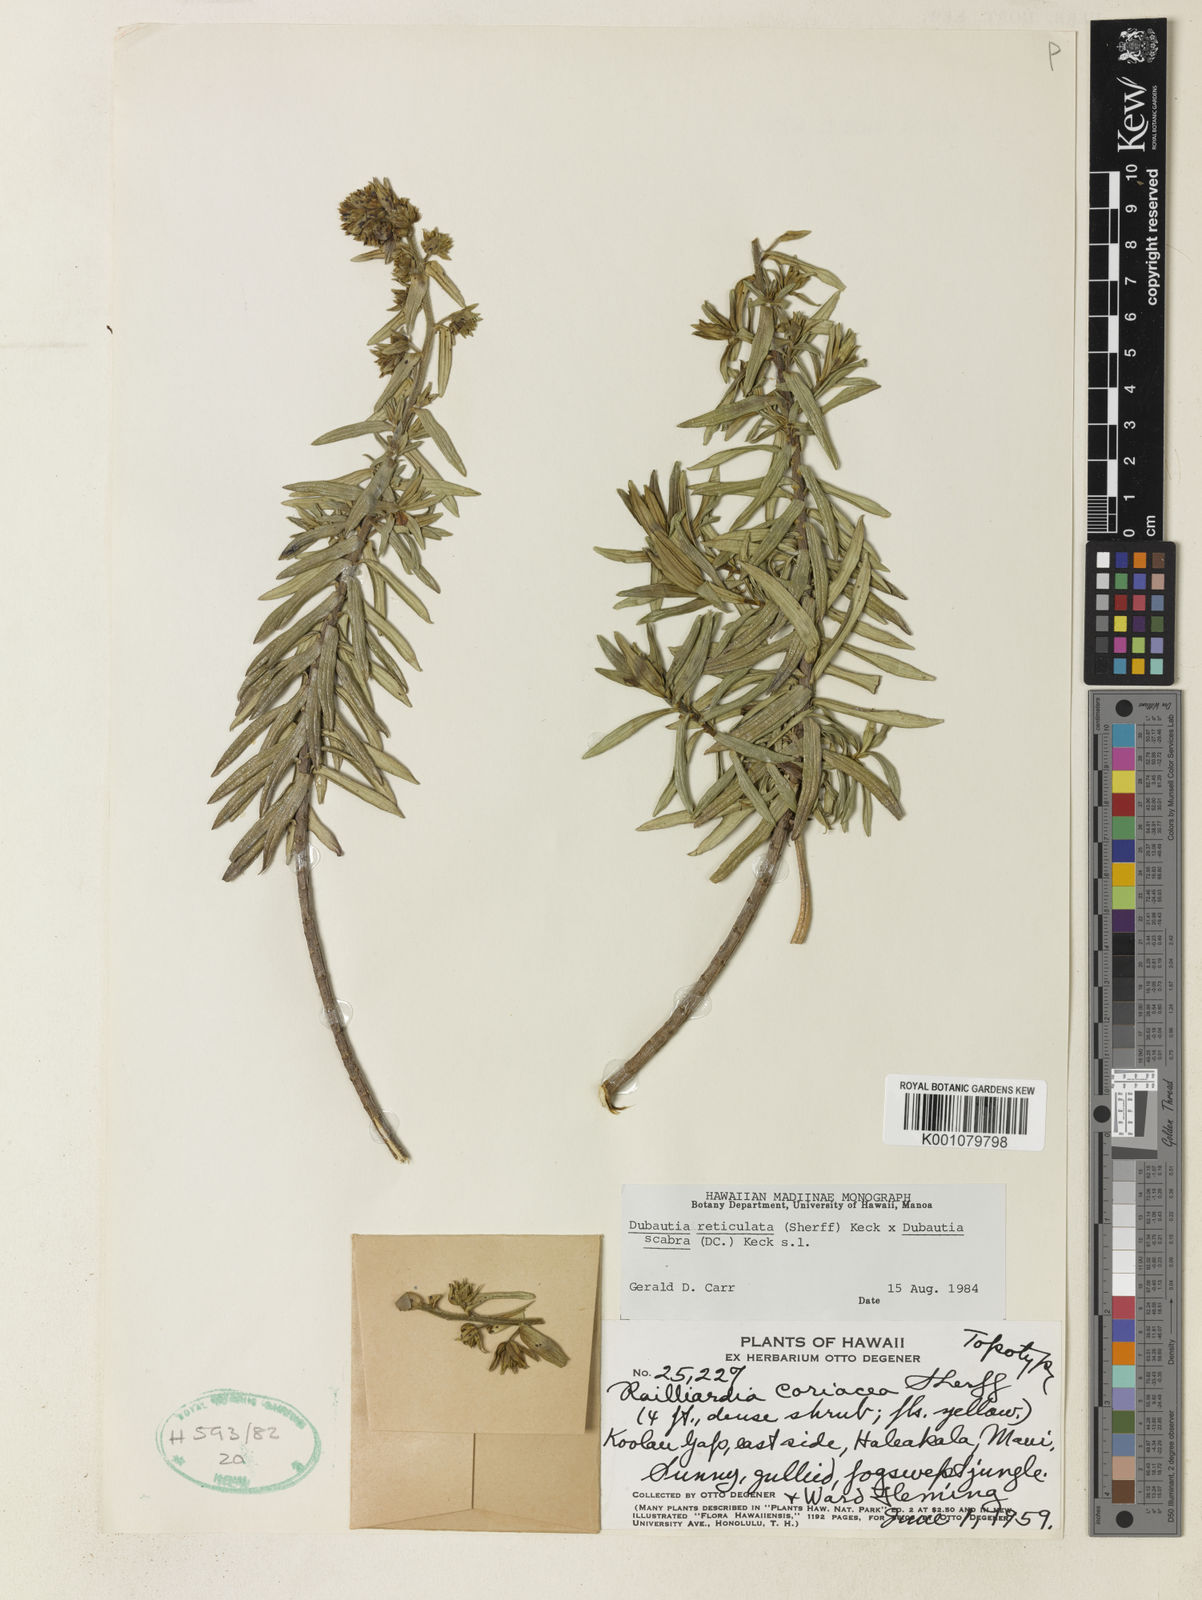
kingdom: Plantae
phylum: Tracheophyta
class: Magnoliopsida
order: Asterales
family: Asteraceae
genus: Dubautia
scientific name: Dubautia reticulata
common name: Net-veined dubautia
